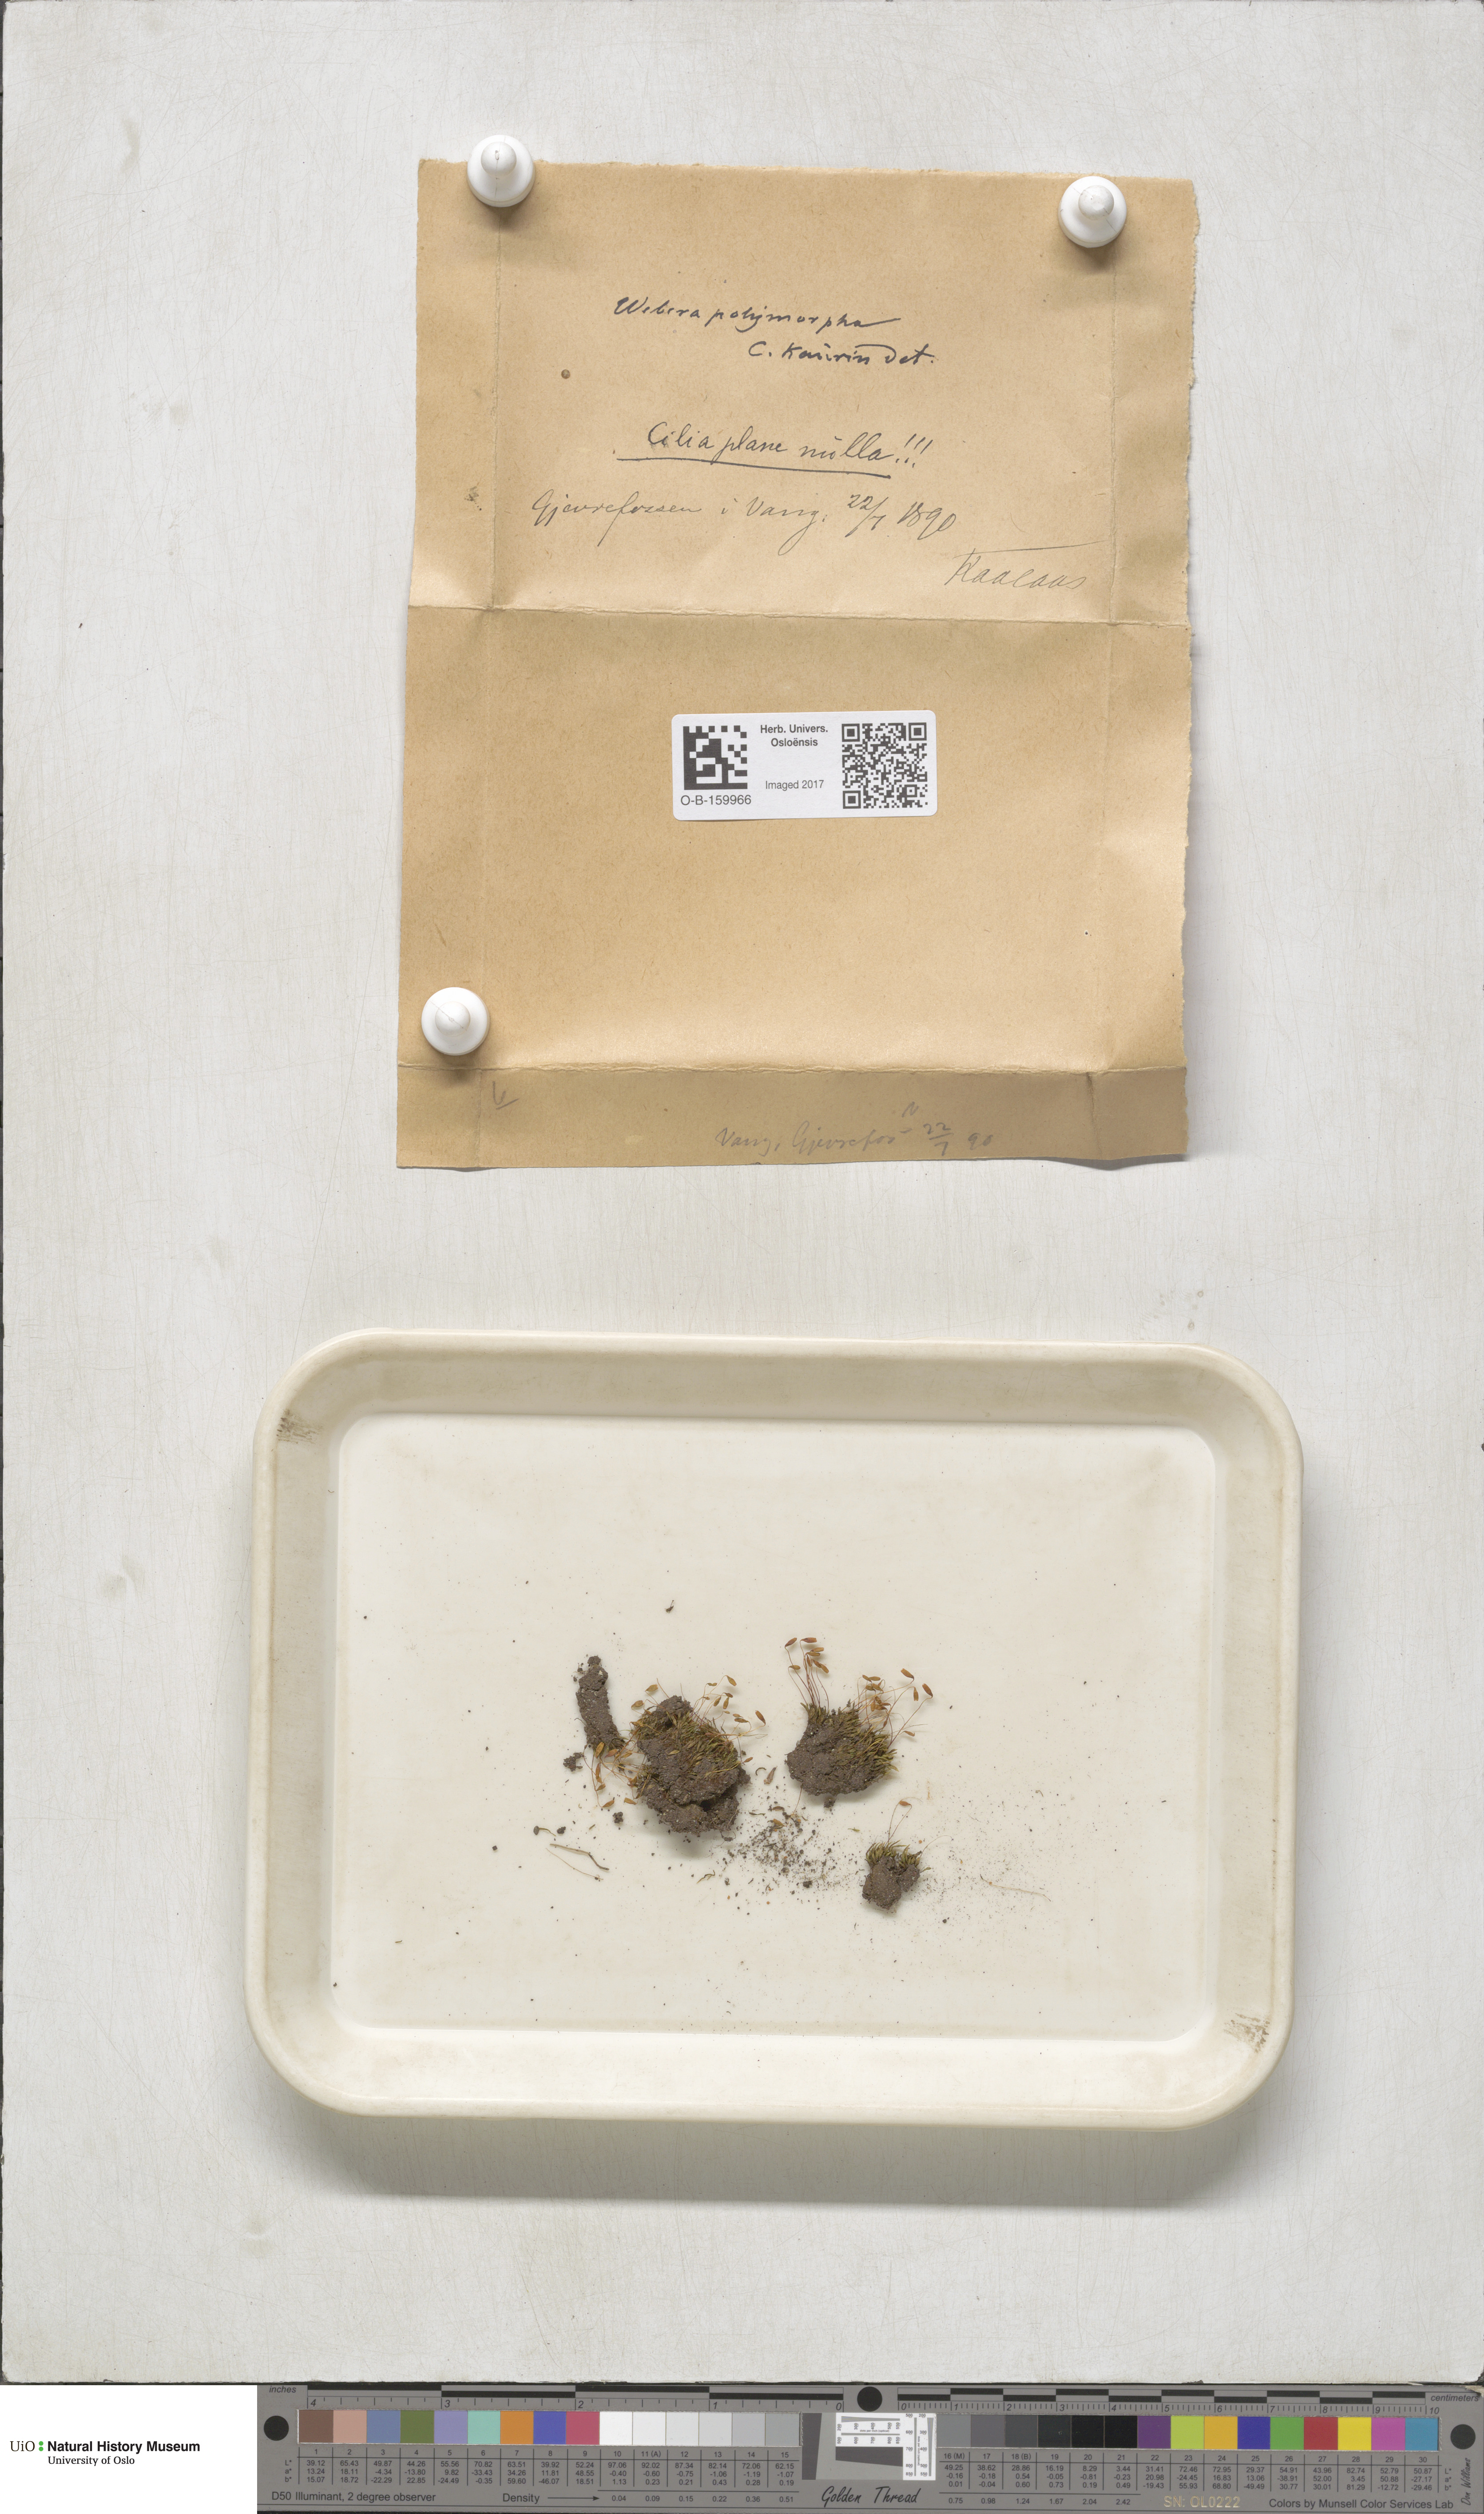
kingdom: Plantae
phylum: Bryophyta
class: Bryopsida
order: Bryales
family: Mniaceae
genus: Pohlia
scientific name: Pohlia elongata
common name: Long-fruited thread-moss
